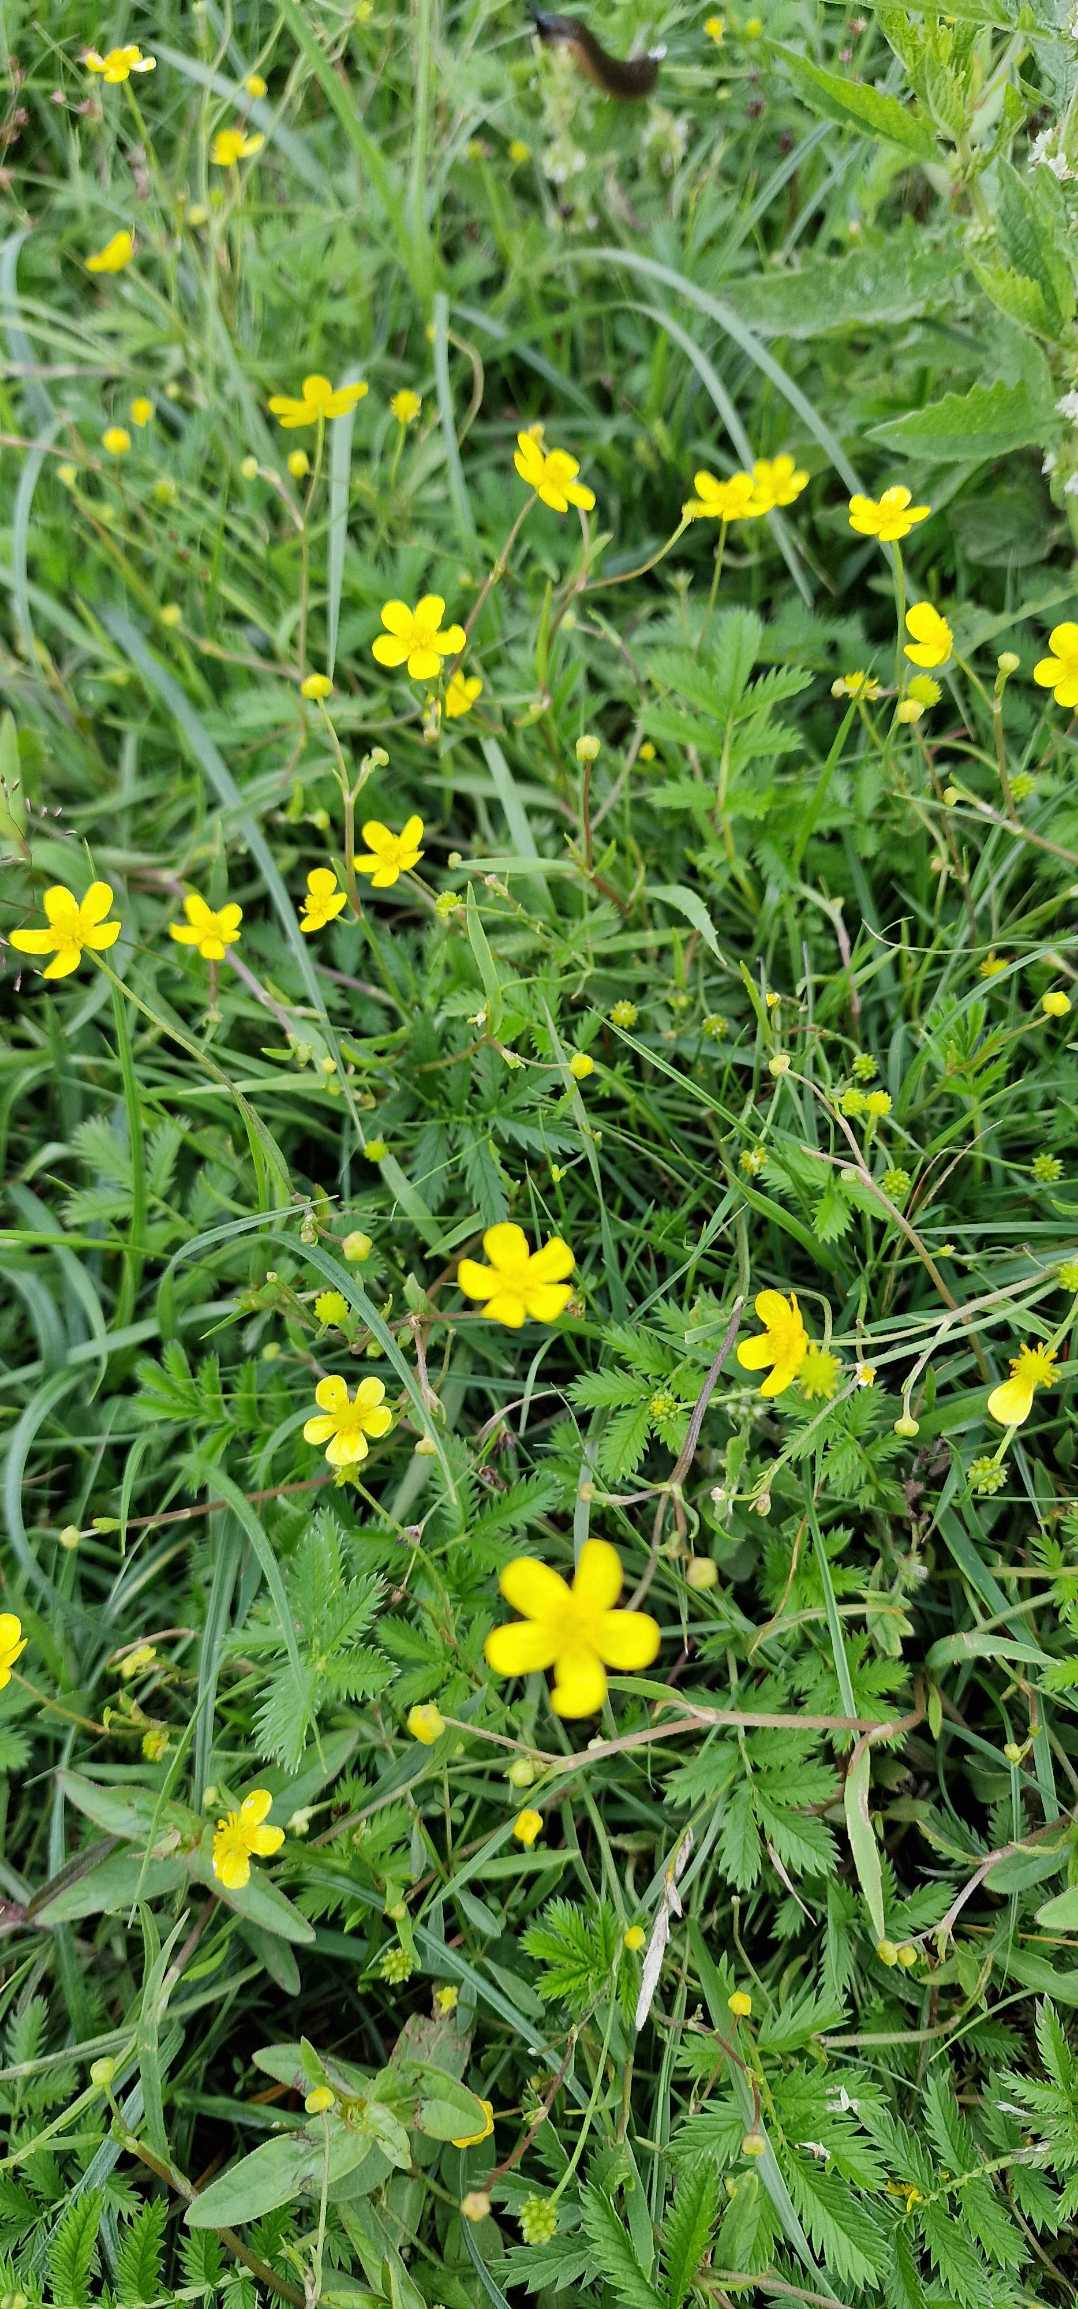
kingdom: Plantae
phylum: Tracheophyta
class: Magnoliopsida
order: Ranunculales
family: Ranunculaceae
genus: Ranunculus
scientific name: Ranunculus flammula
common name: Kær-ranunkel
